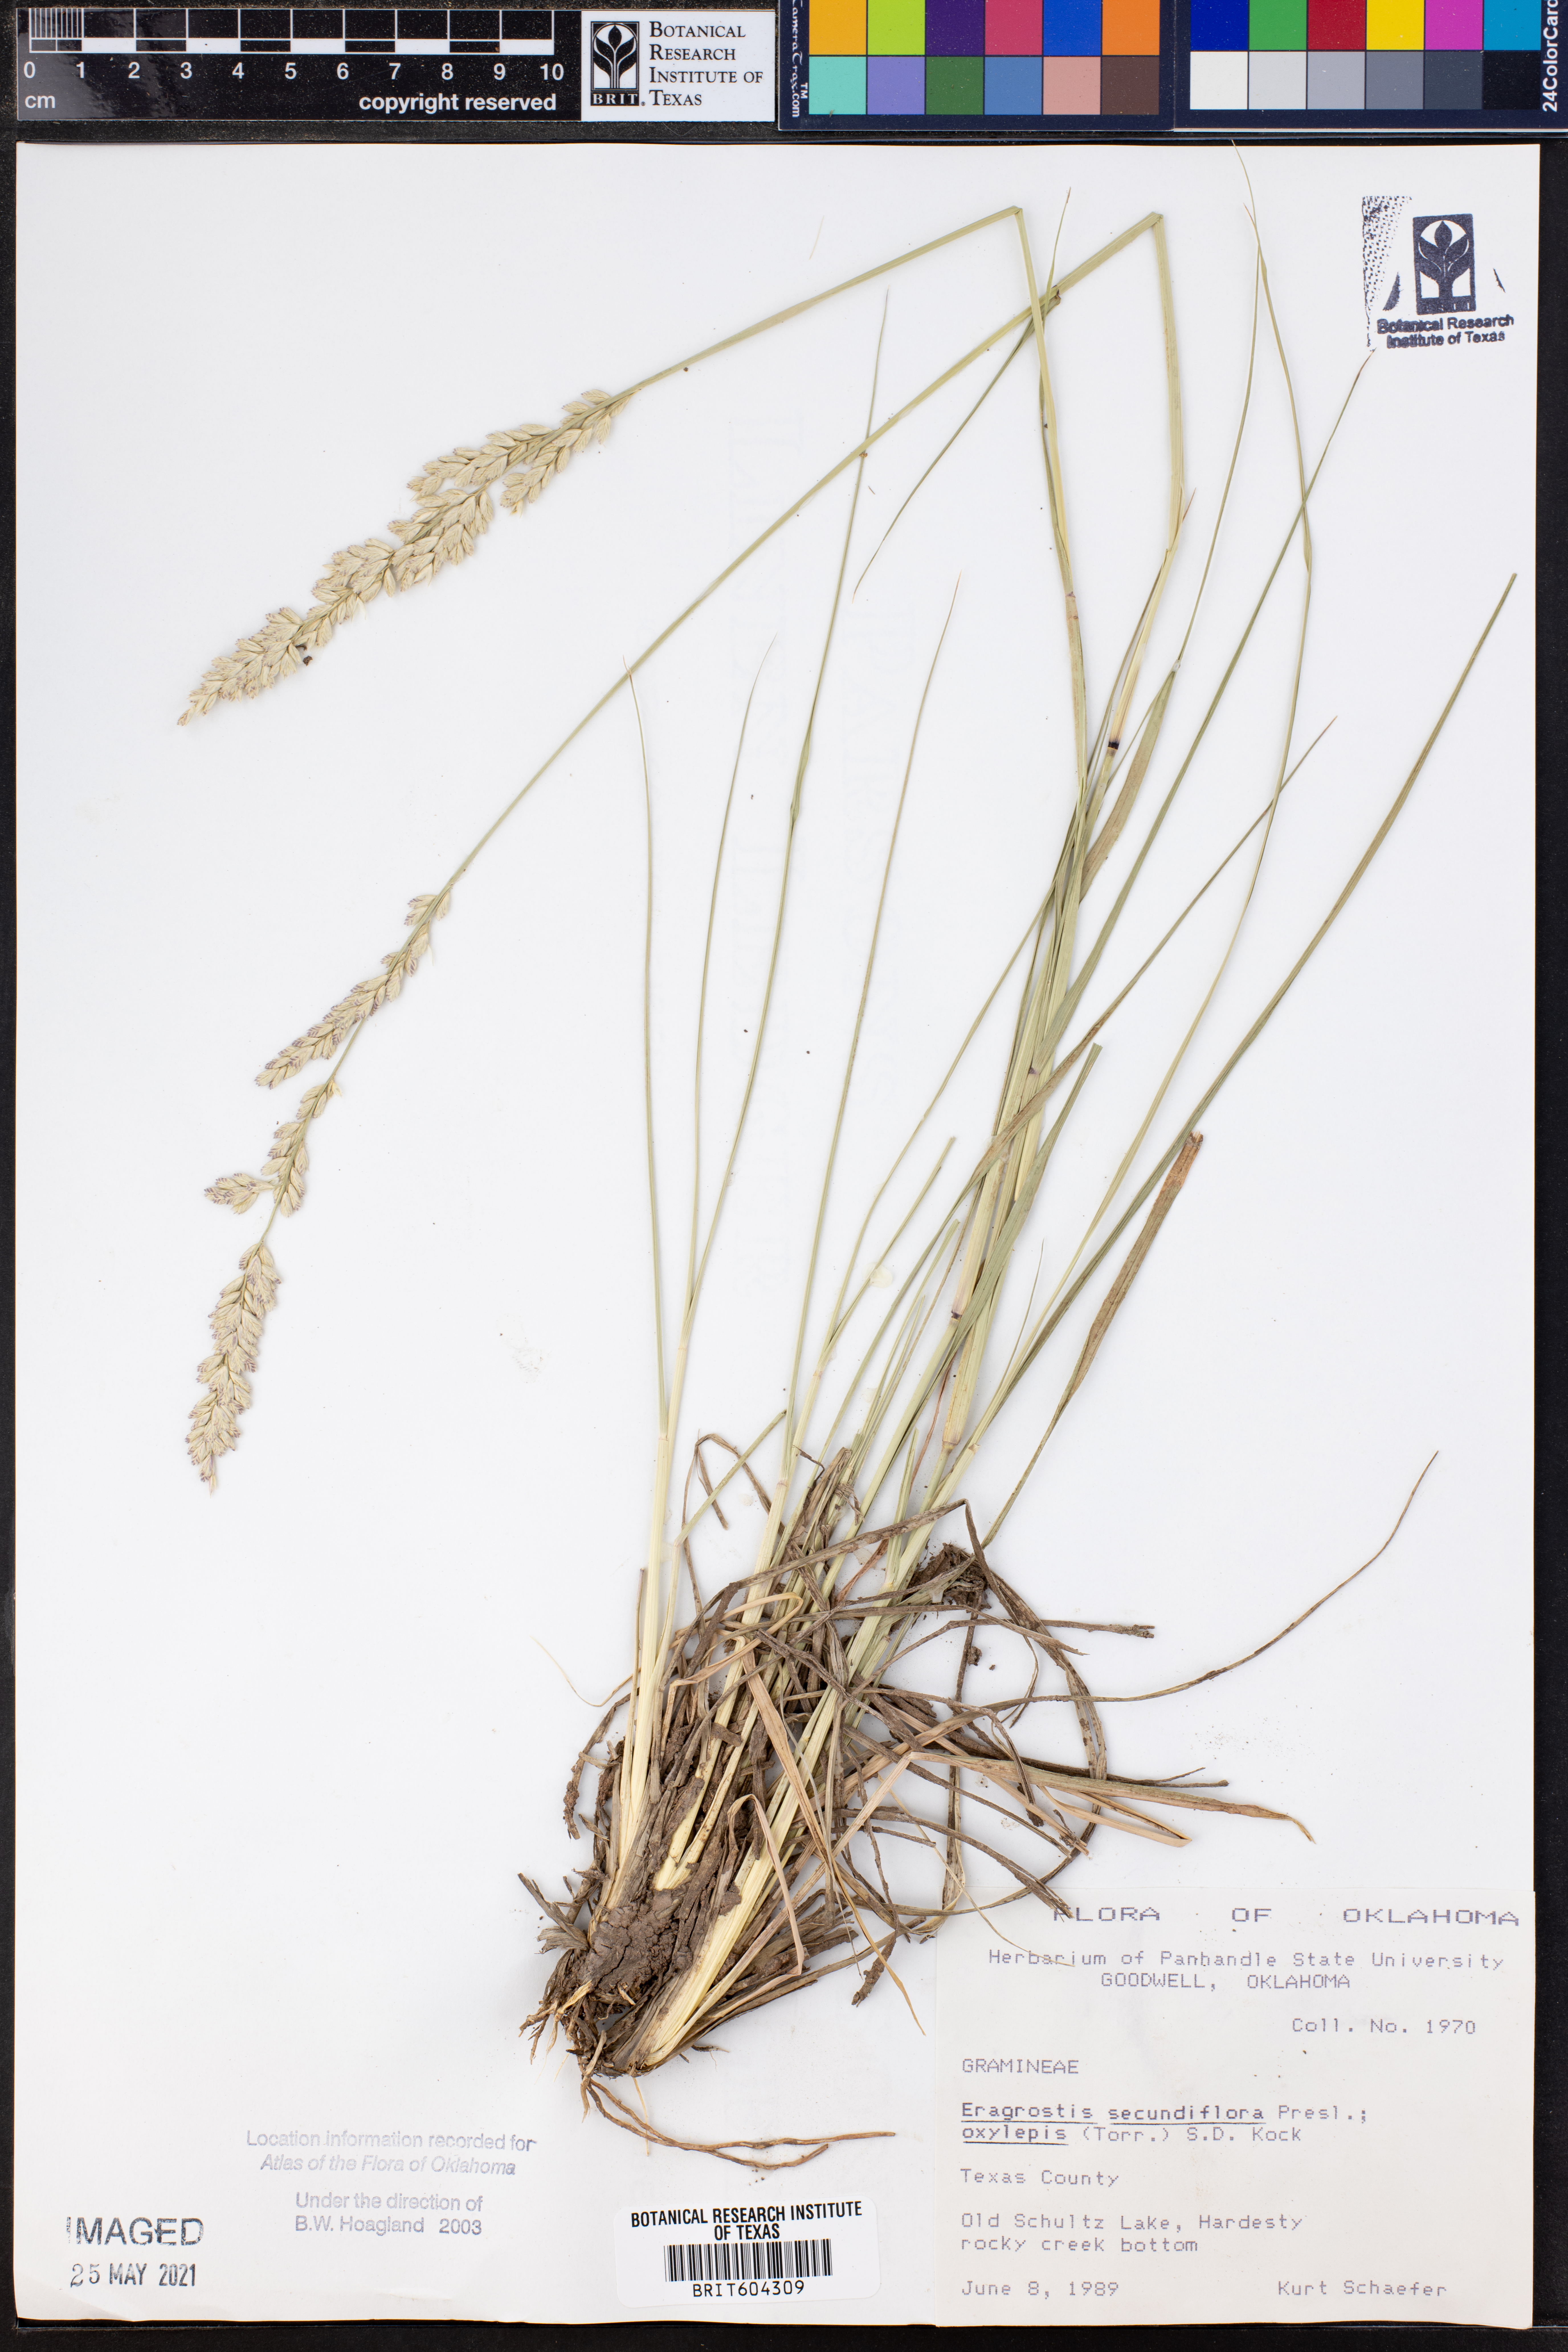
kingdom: Plantae
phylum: Tracheophyta
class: Liliopsida
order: Poales
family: Poaceae
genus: Eragrostis
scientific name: Eragrostis secundiflora
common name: Red love grass
